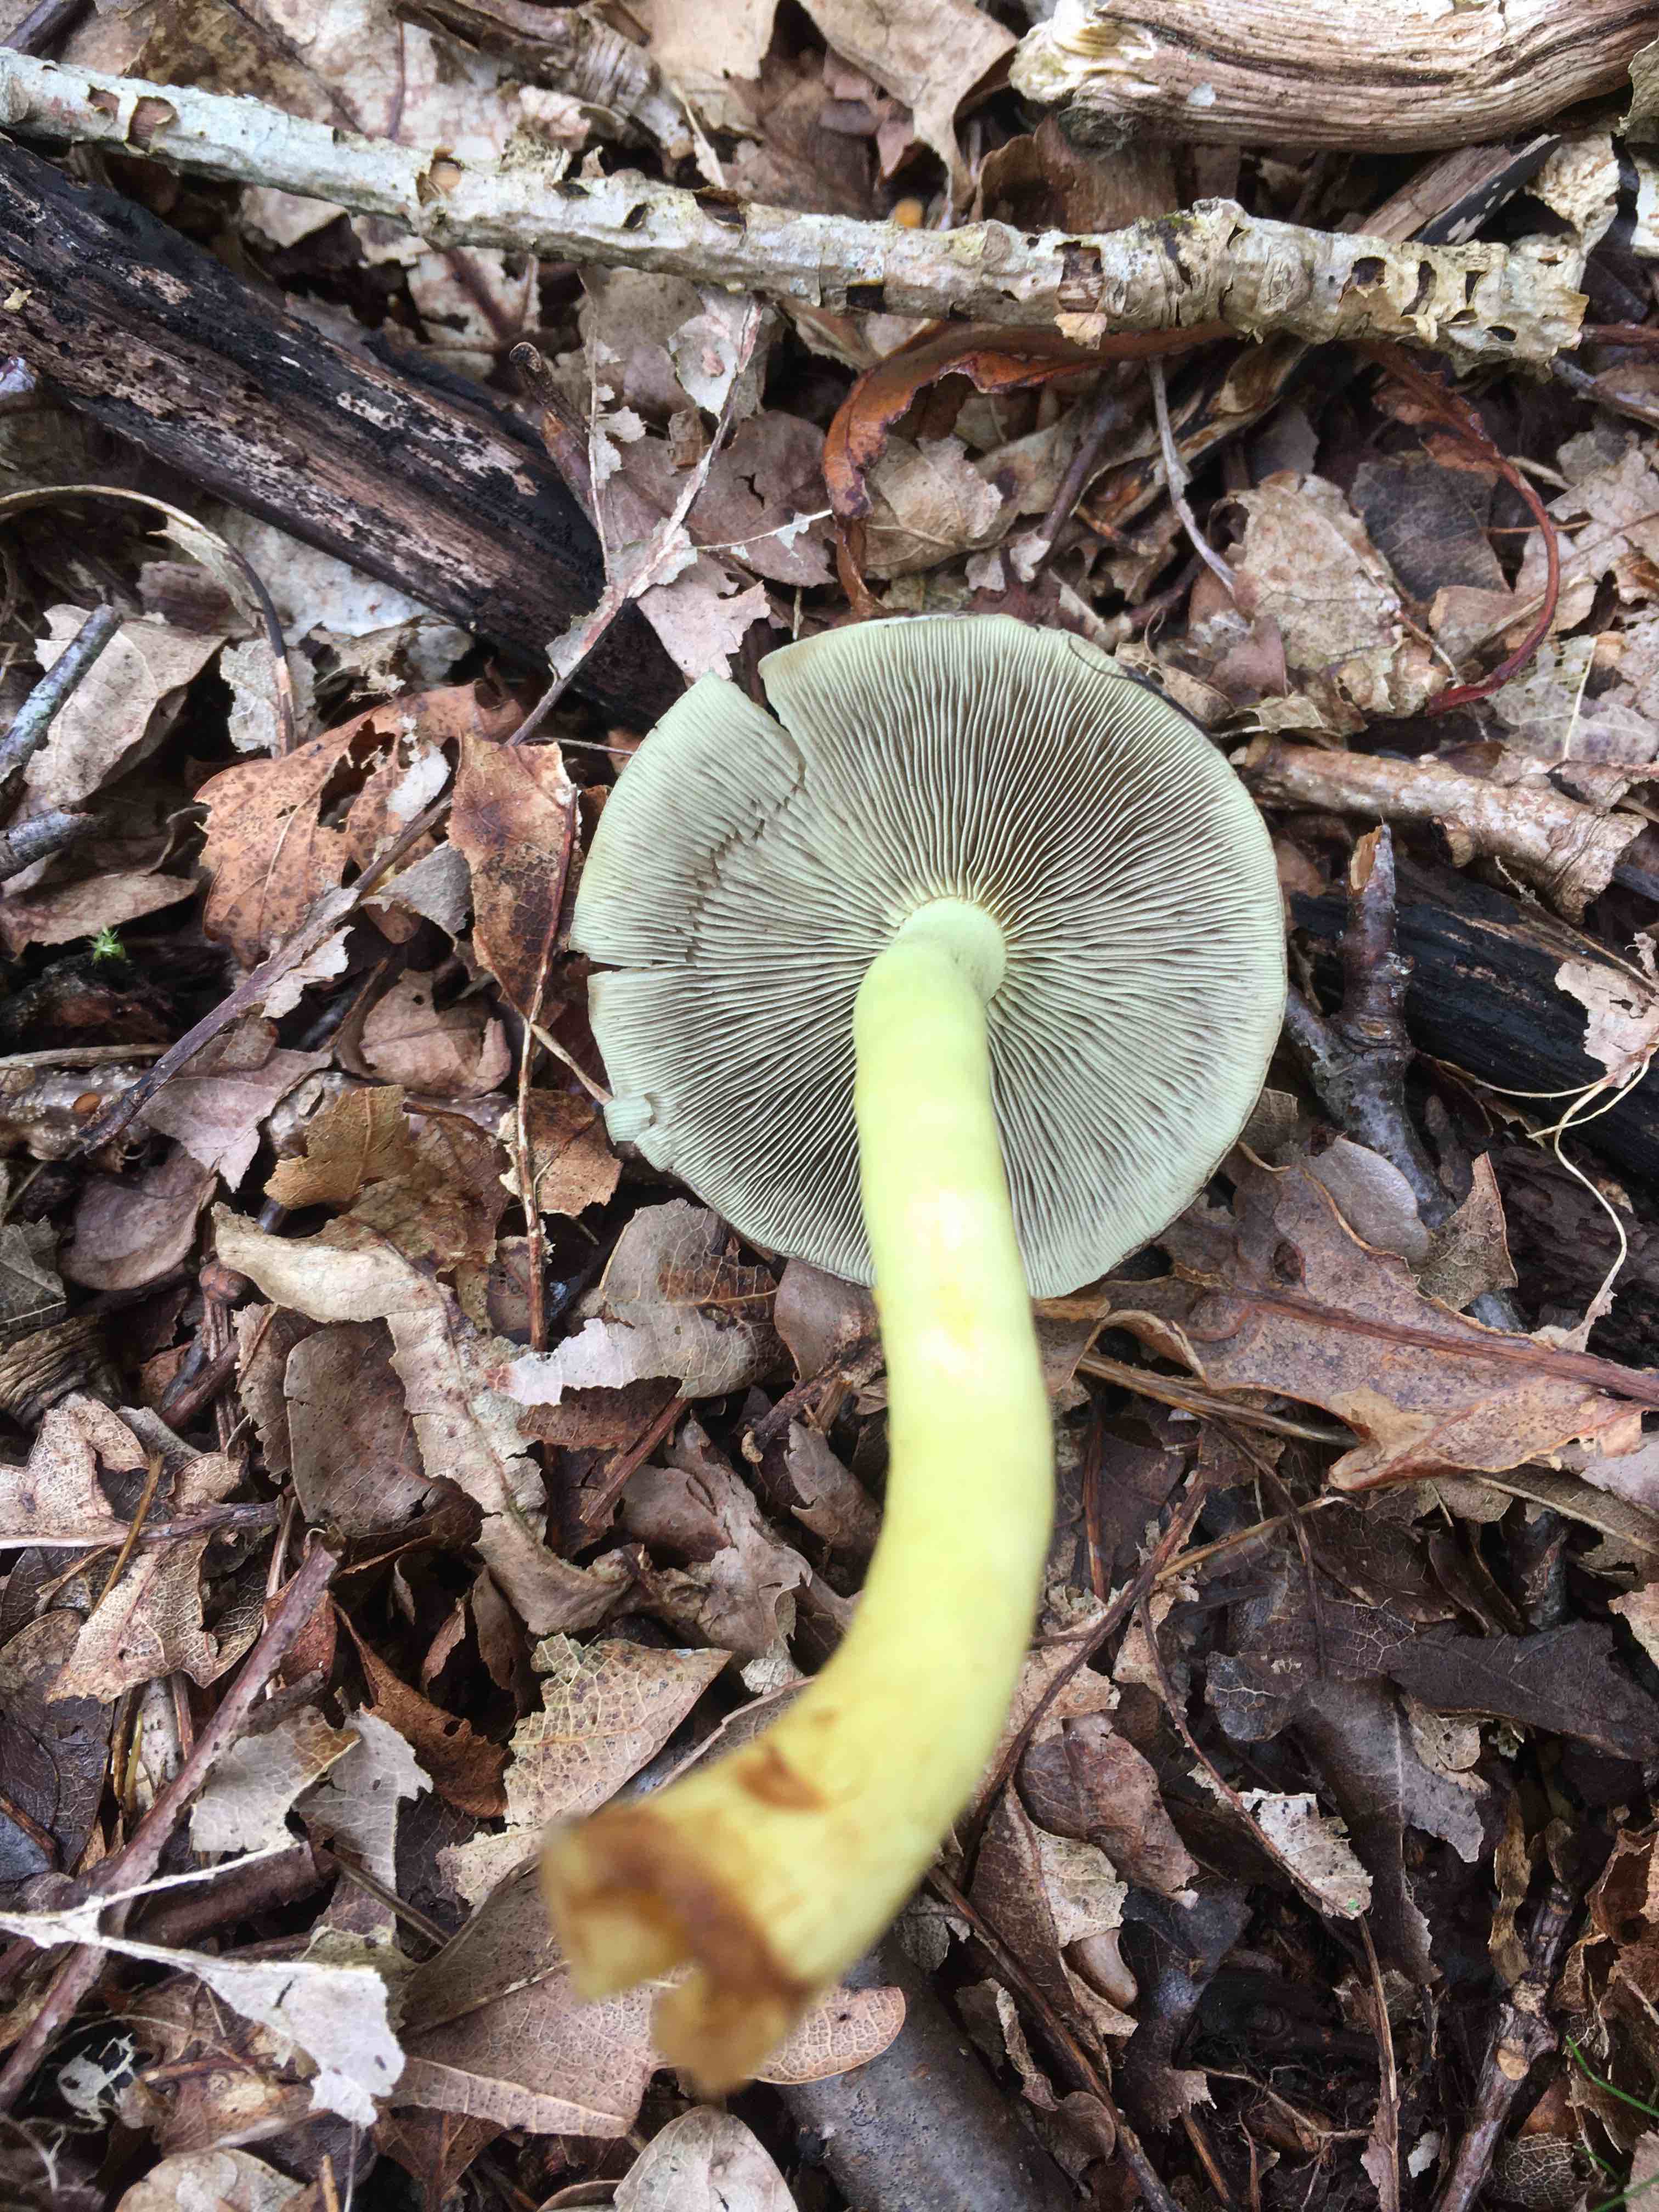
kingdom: Fungi
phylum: Basidiomycota
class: Agaricomycetes
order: Agaricales
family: Strophariaceae
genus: Hypholoma
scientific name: Hypholoma fasciculare
